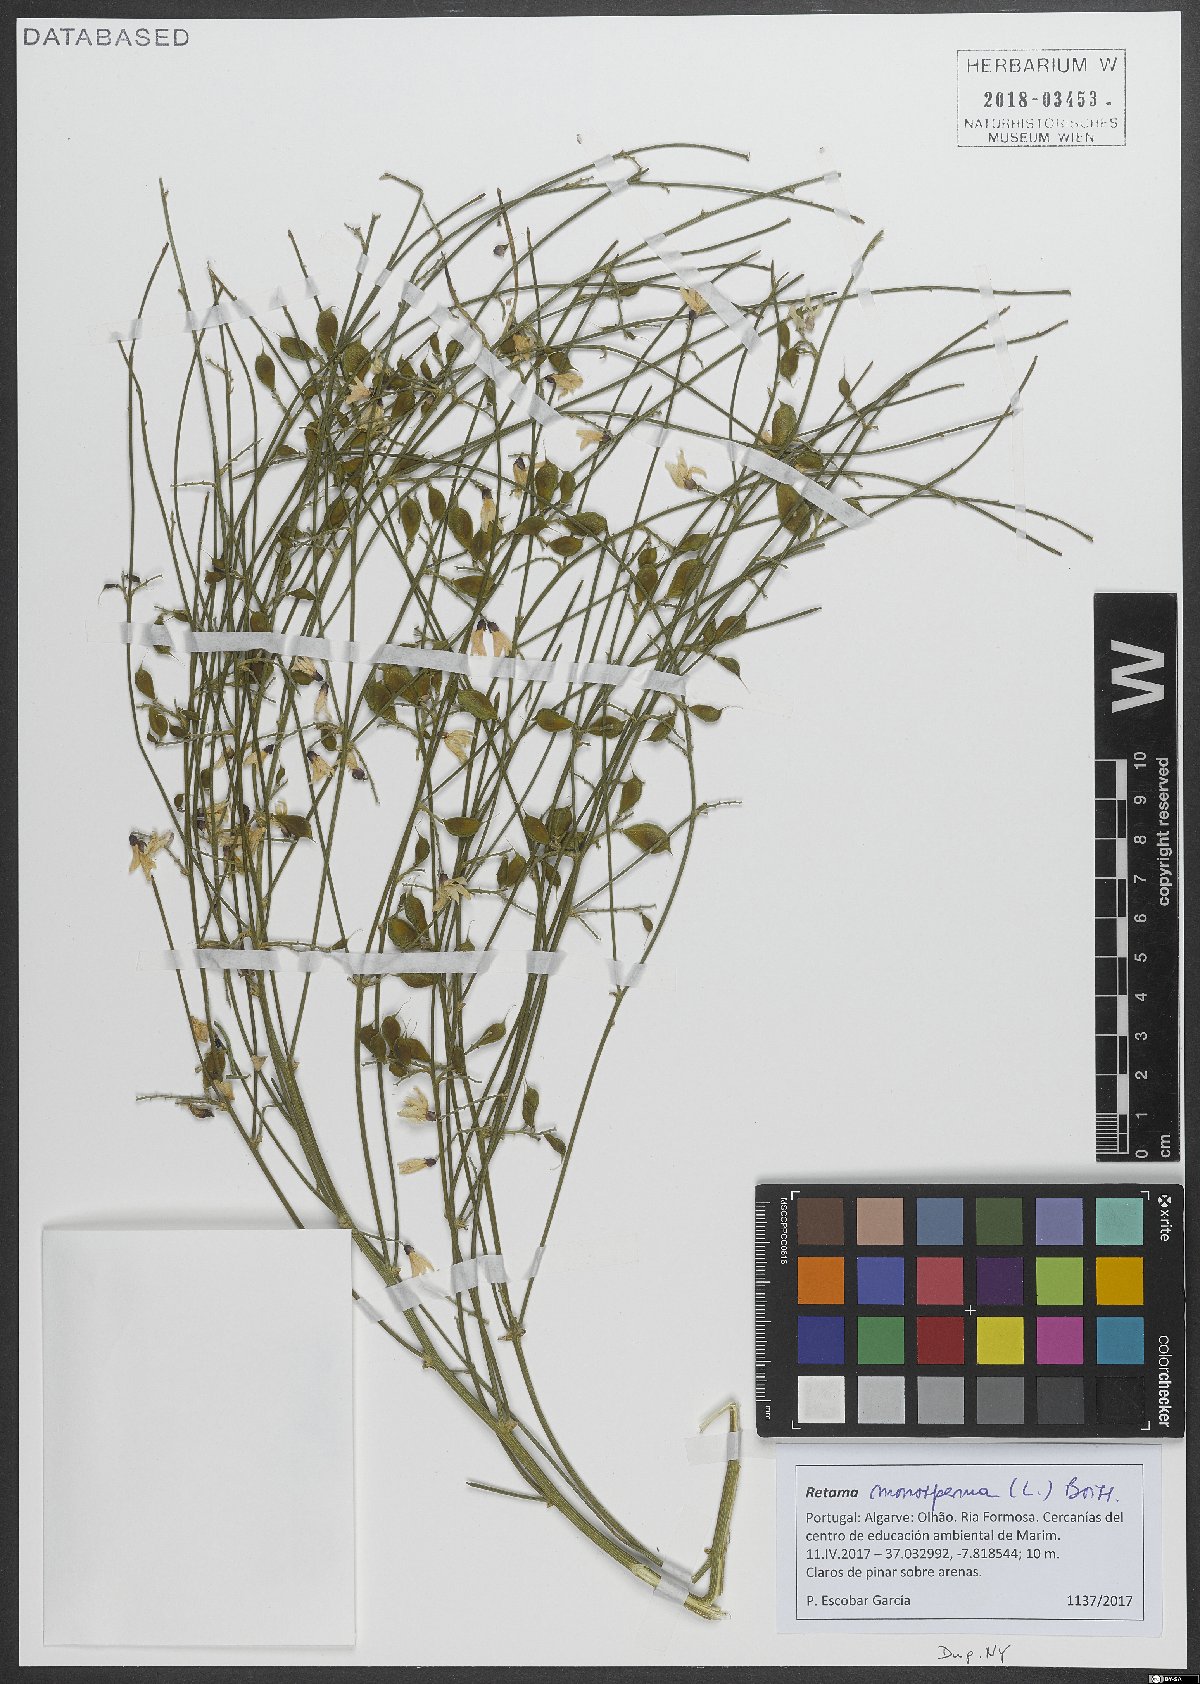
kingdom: Plantae
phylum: Tracheophyta
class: Magnoliopsida
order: Fabales
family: Fabaceae
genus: Retama
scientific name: Retama monosperma
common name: Bridal broom
